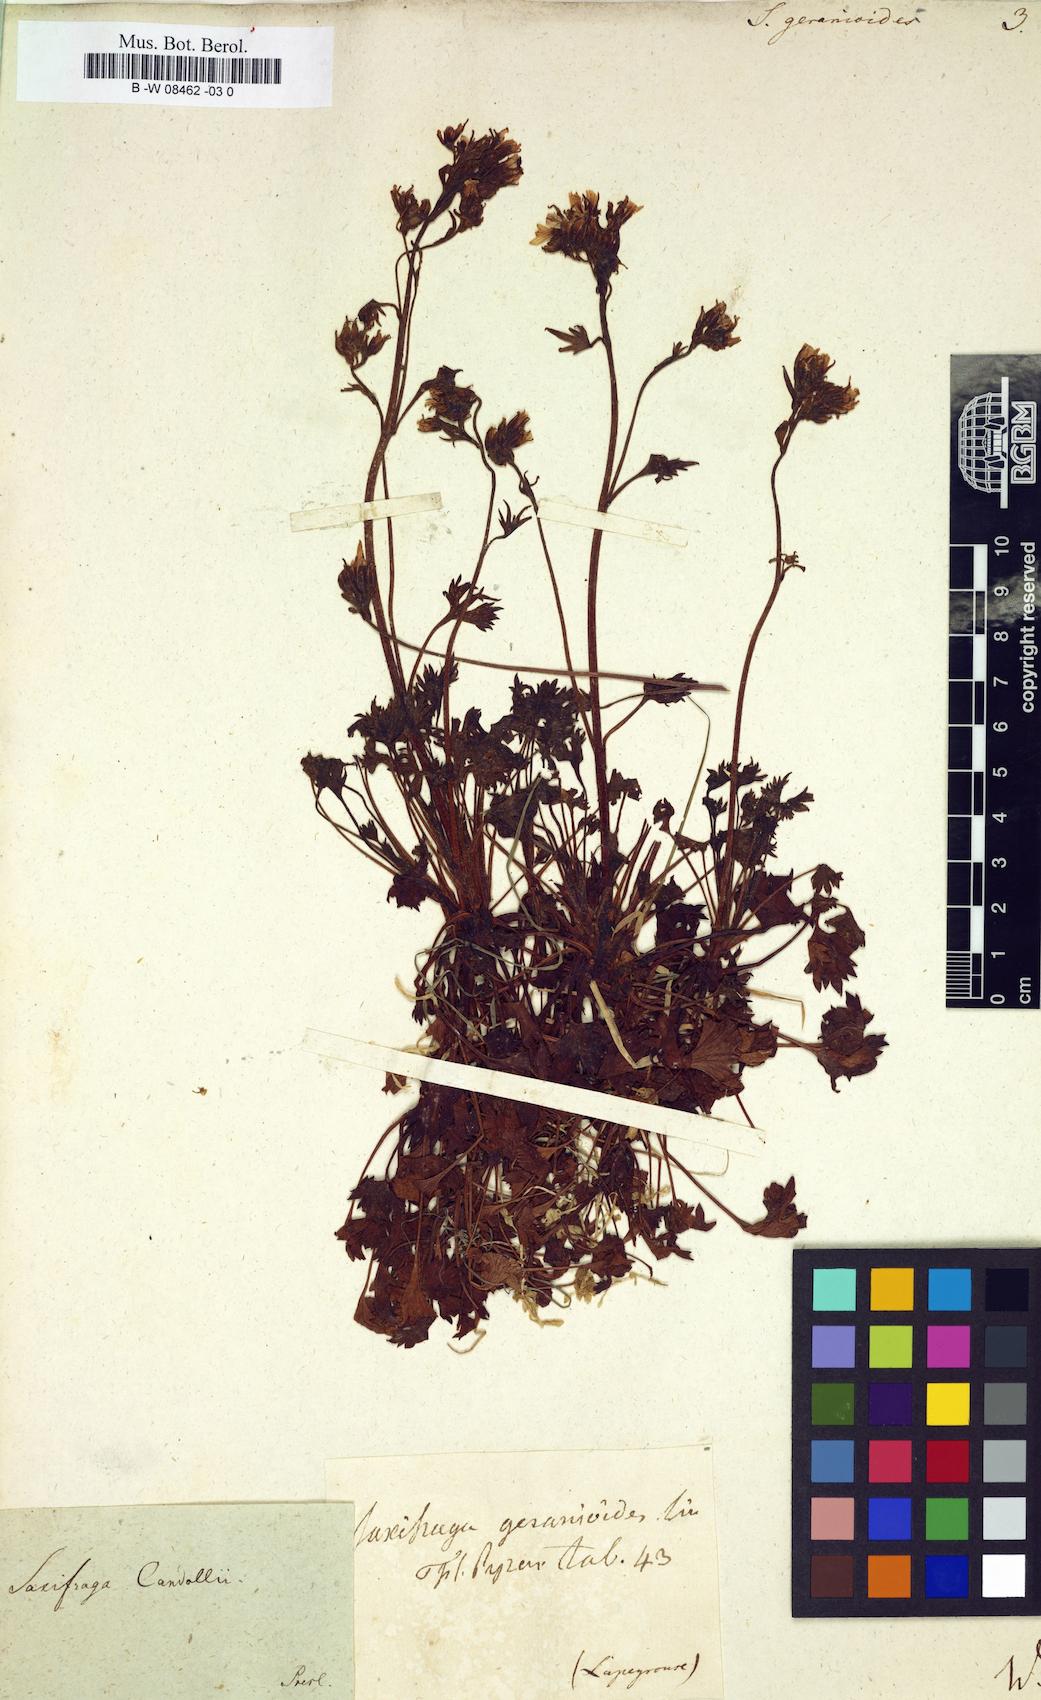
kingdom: Plantae
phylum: Tracheophyta
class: Magnoliopsida
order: Saxifragales
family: Saxifragaceae
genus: Saxifraga
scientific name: Saxifraga geranioides
